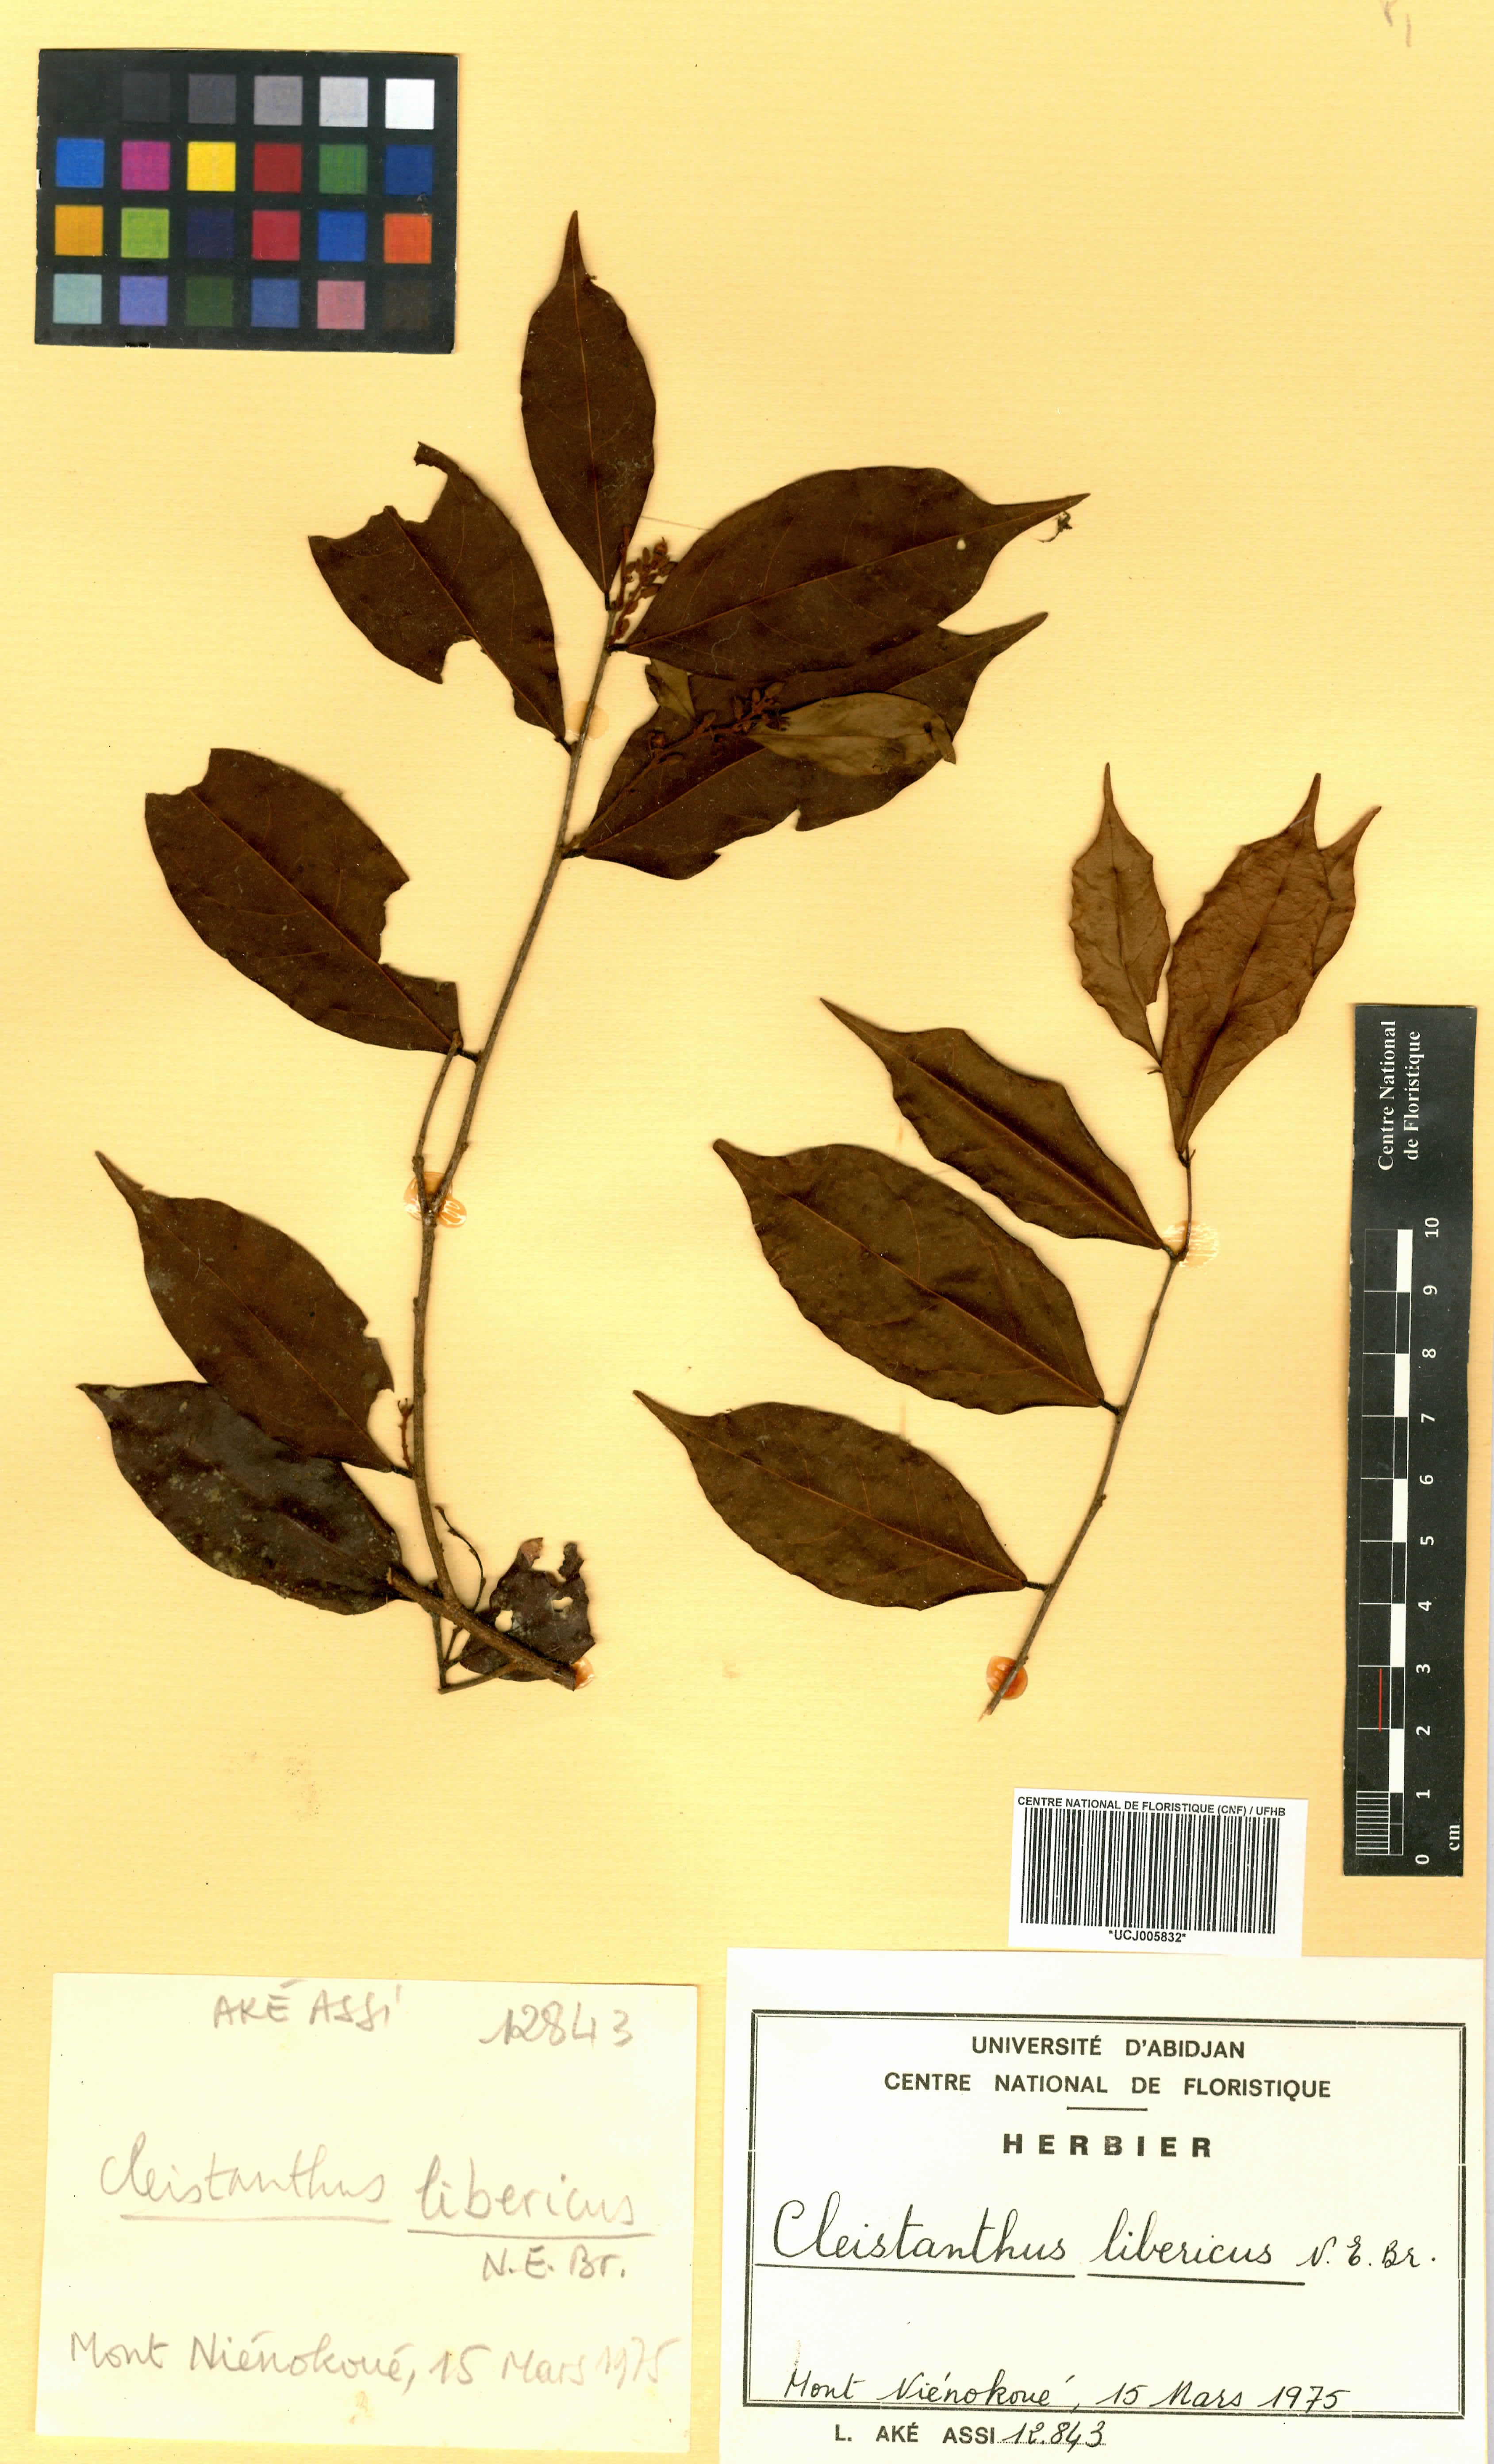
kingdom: Plantae
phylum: Tracheophyta
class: Magnoliopsida
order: Malpighiales
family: Phyllanthaceae
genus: Cleistanthus
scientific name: Cleistanthus libericus
